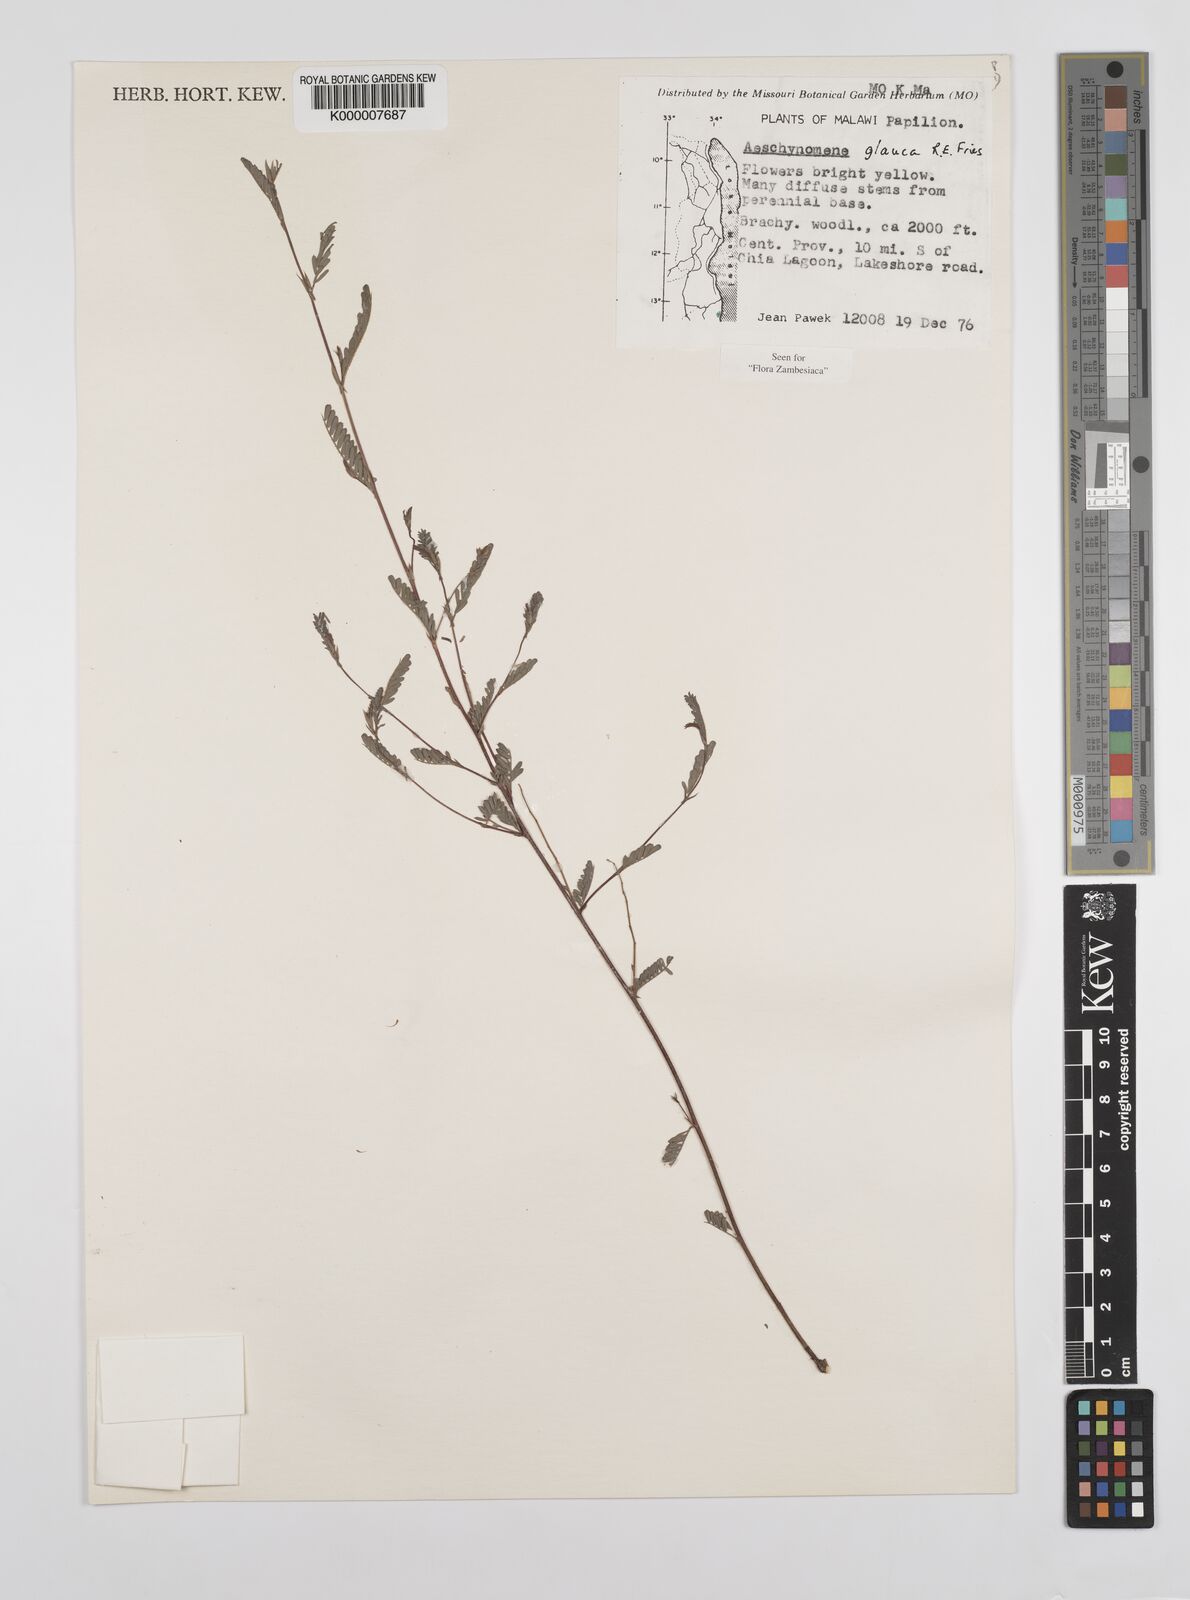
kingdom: Plantae
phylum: Tracheophyta
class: Magnoliopsida
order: Fabales
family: Fabaceae
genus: Aeschynomene
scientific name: Aeschynomene glauca
